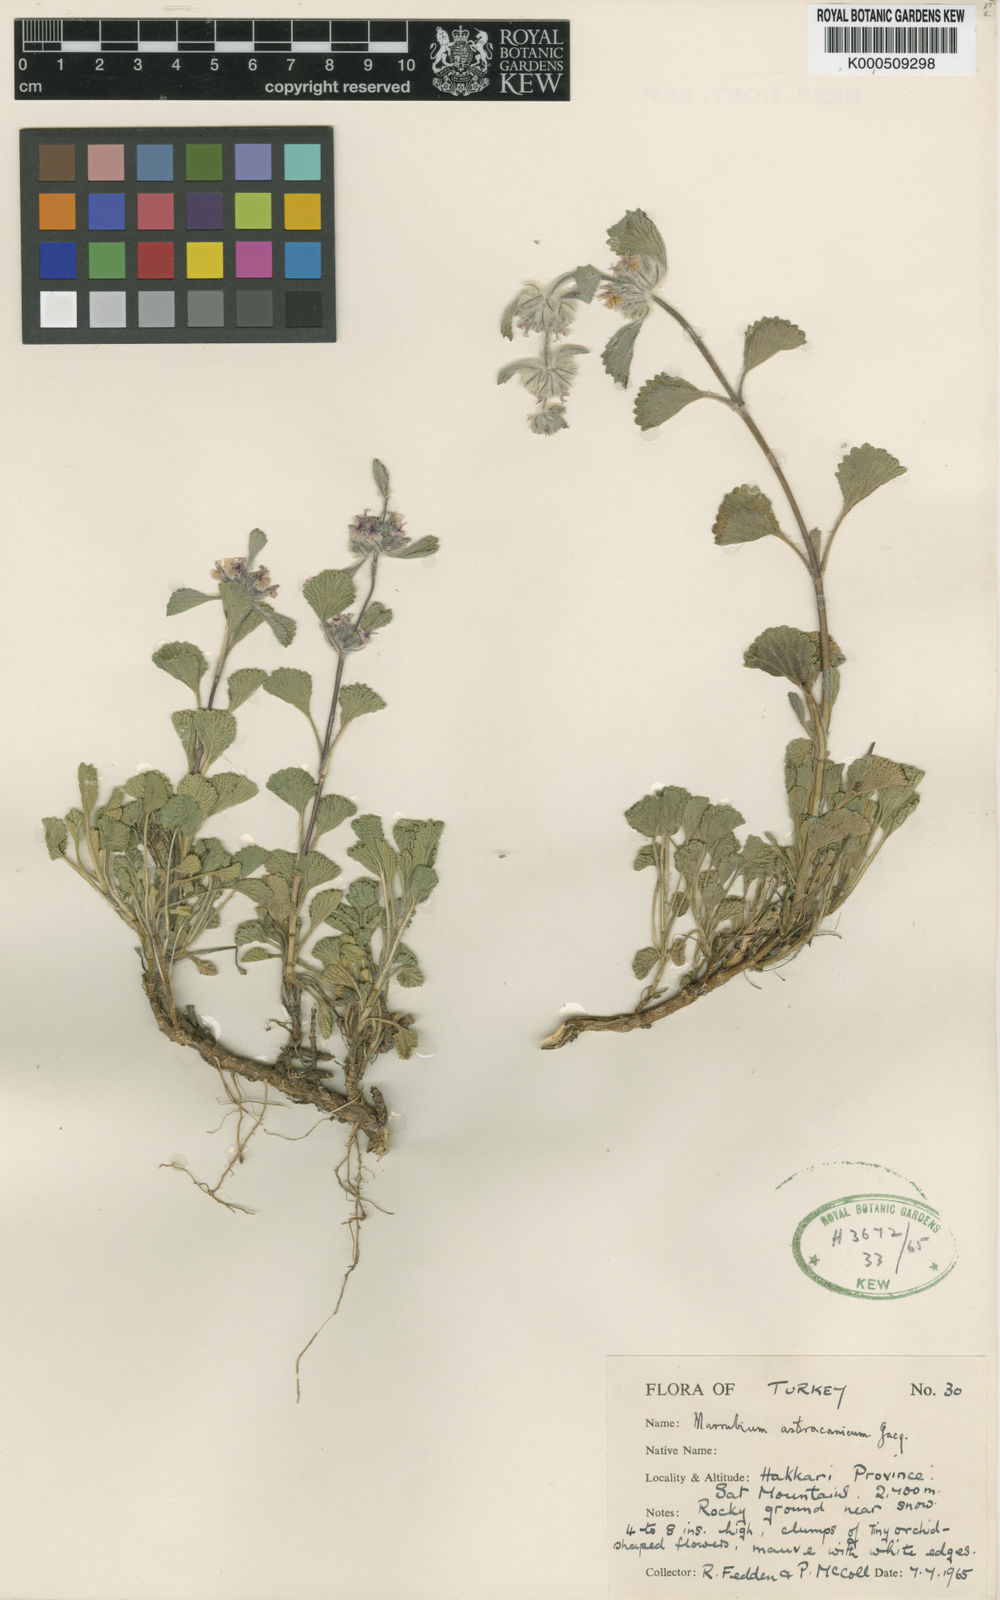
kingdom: Plantae
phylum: Tracheophyta
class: Magnoliopsida
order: Lamiales
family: Lamiaceae
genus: Marrubium
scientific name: Marrubium astracanicum
